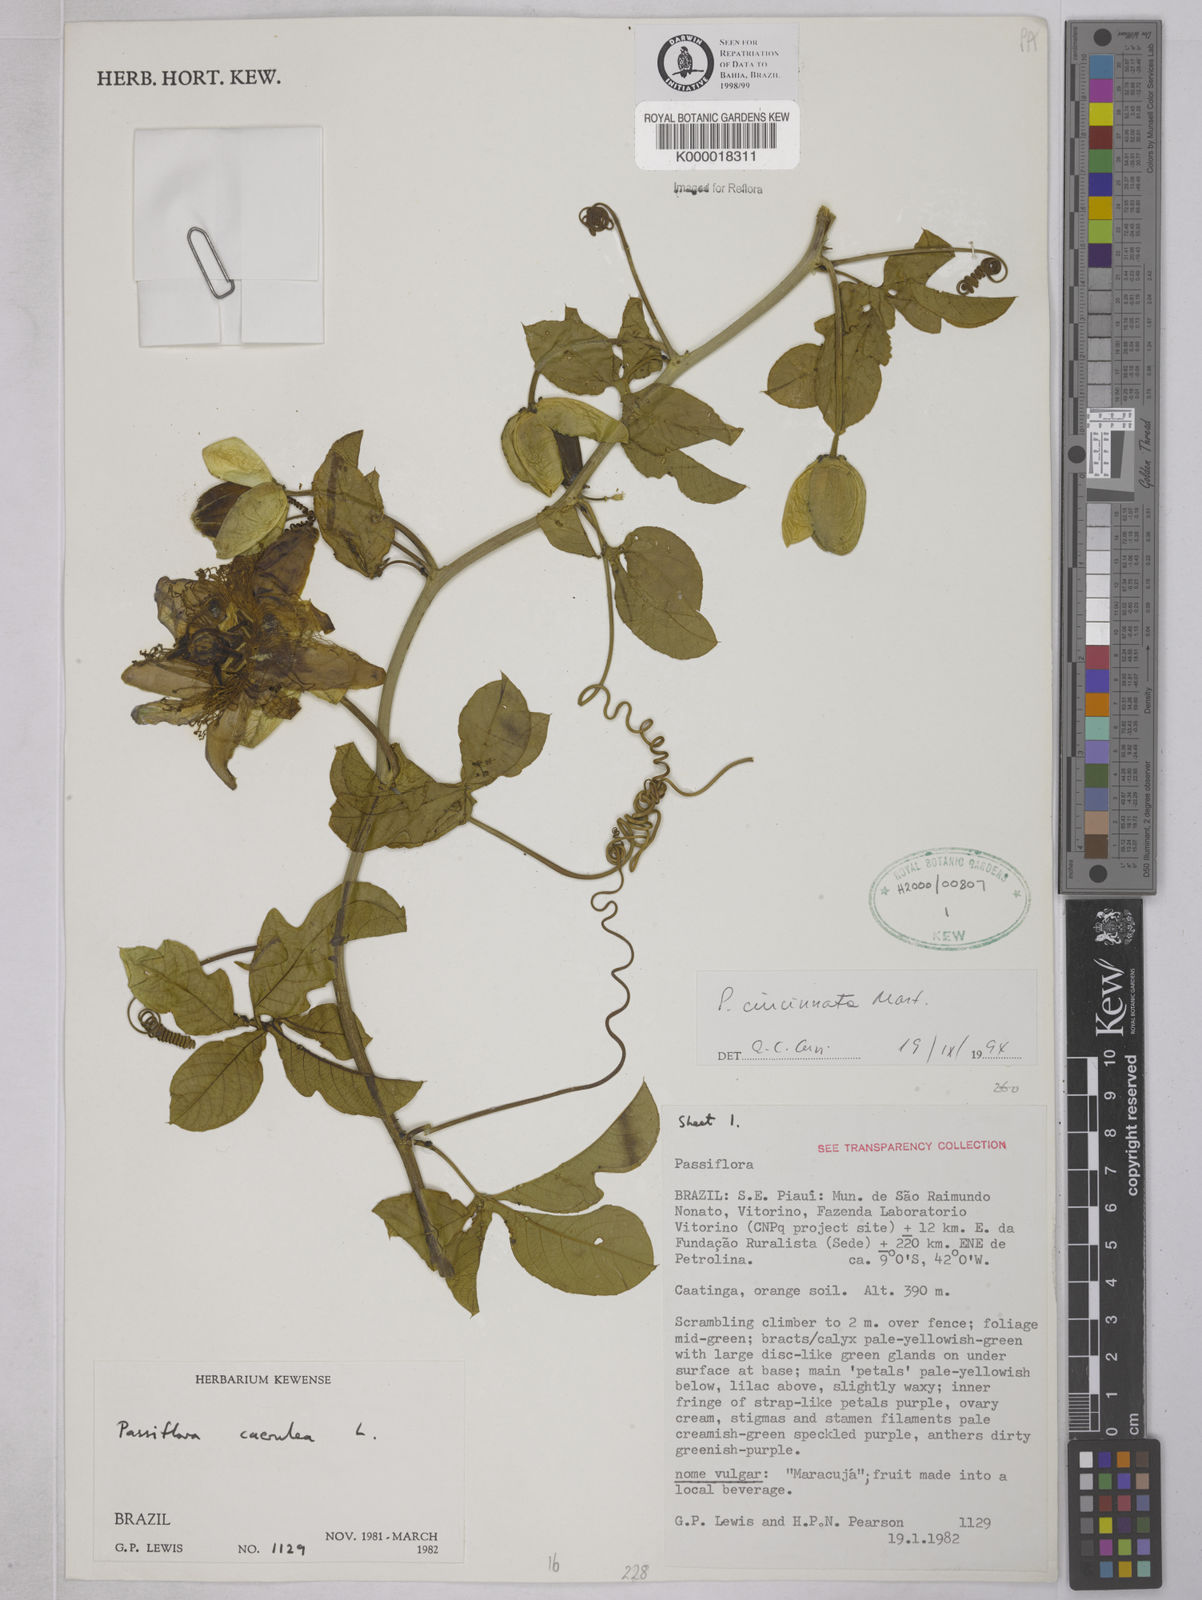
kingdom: Plantae
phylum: Tracheophyta
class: Magnoliopsida
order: Malpighiales
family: Passifloraceae
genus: Passiflora
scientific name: Passiflora cincinnata
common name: Crato passionvine
